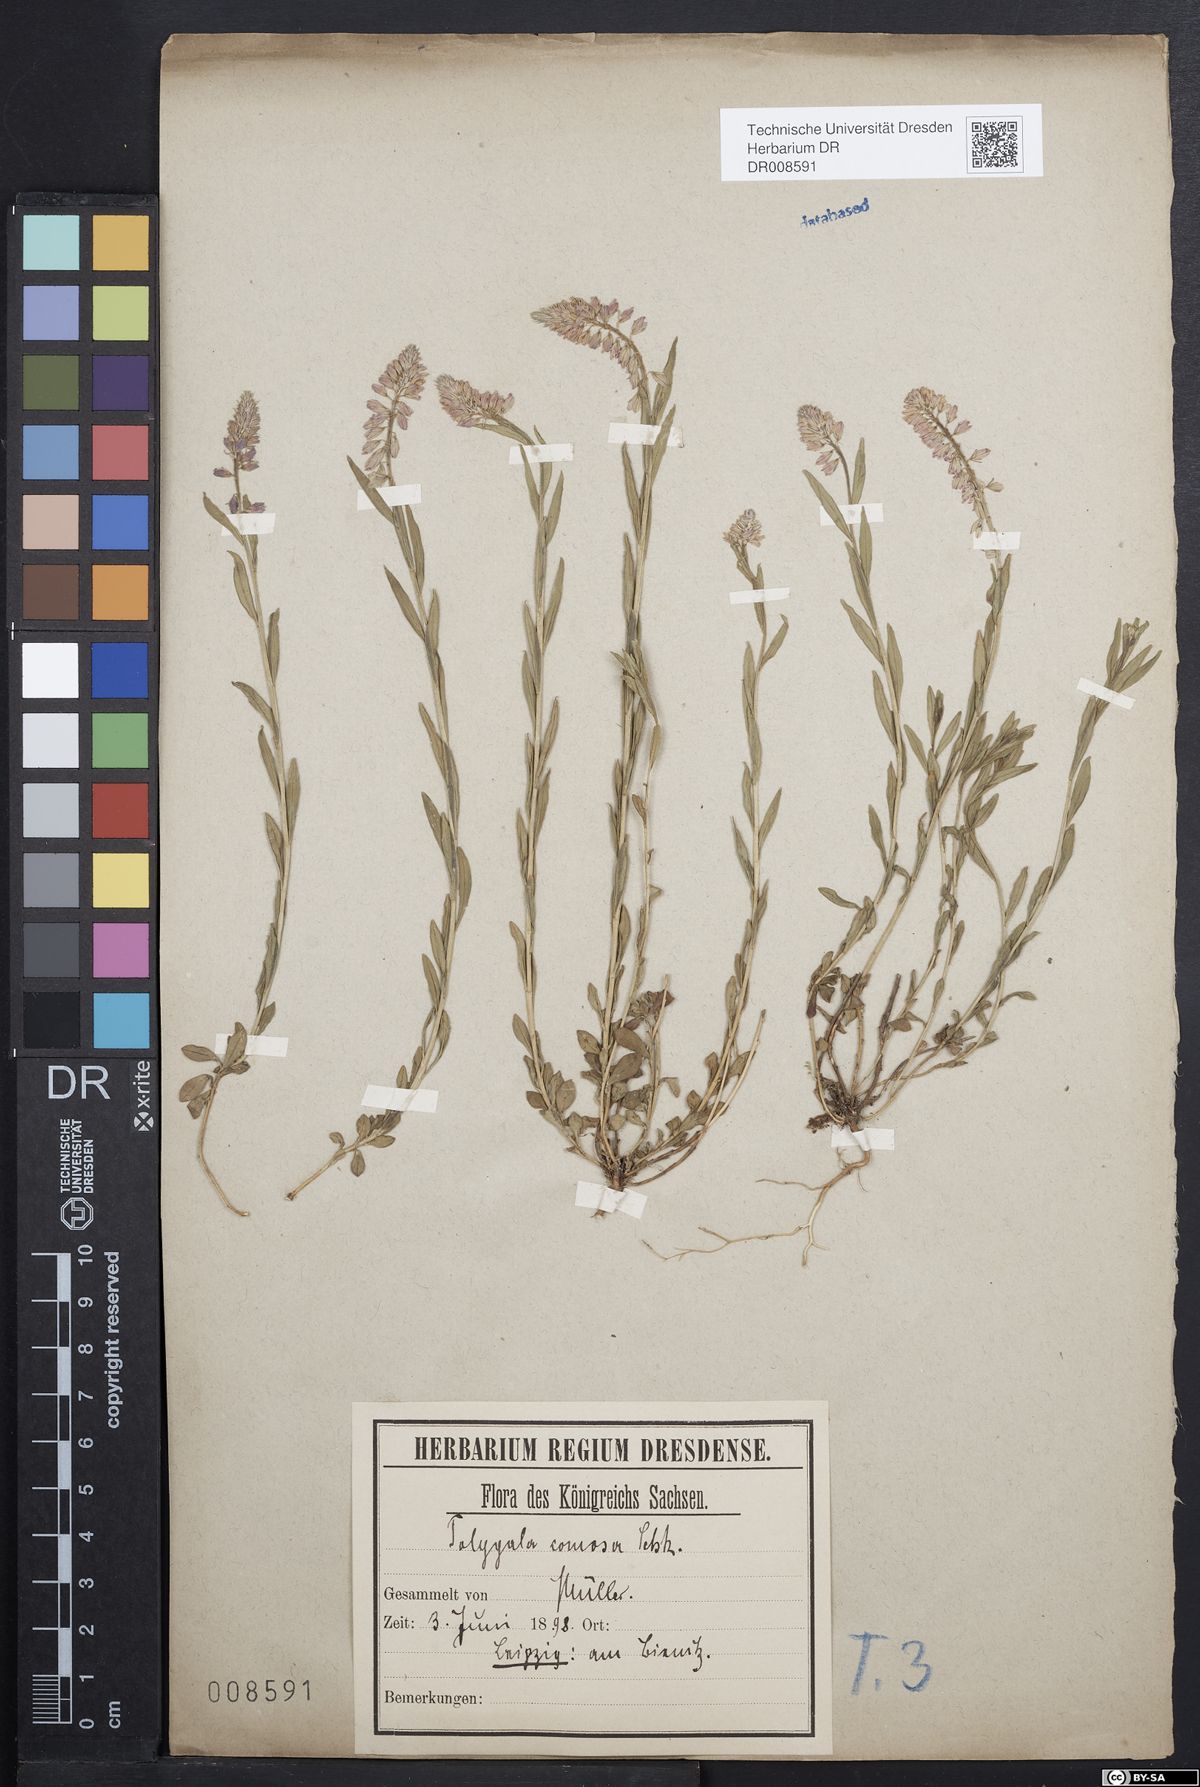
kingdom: Plantae
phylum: Tracheophyta
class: Magnoliopsida
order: Fabales
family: Polygalaceae
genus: Polygala
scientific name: Polygala comosa
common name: Tufted milkwort
